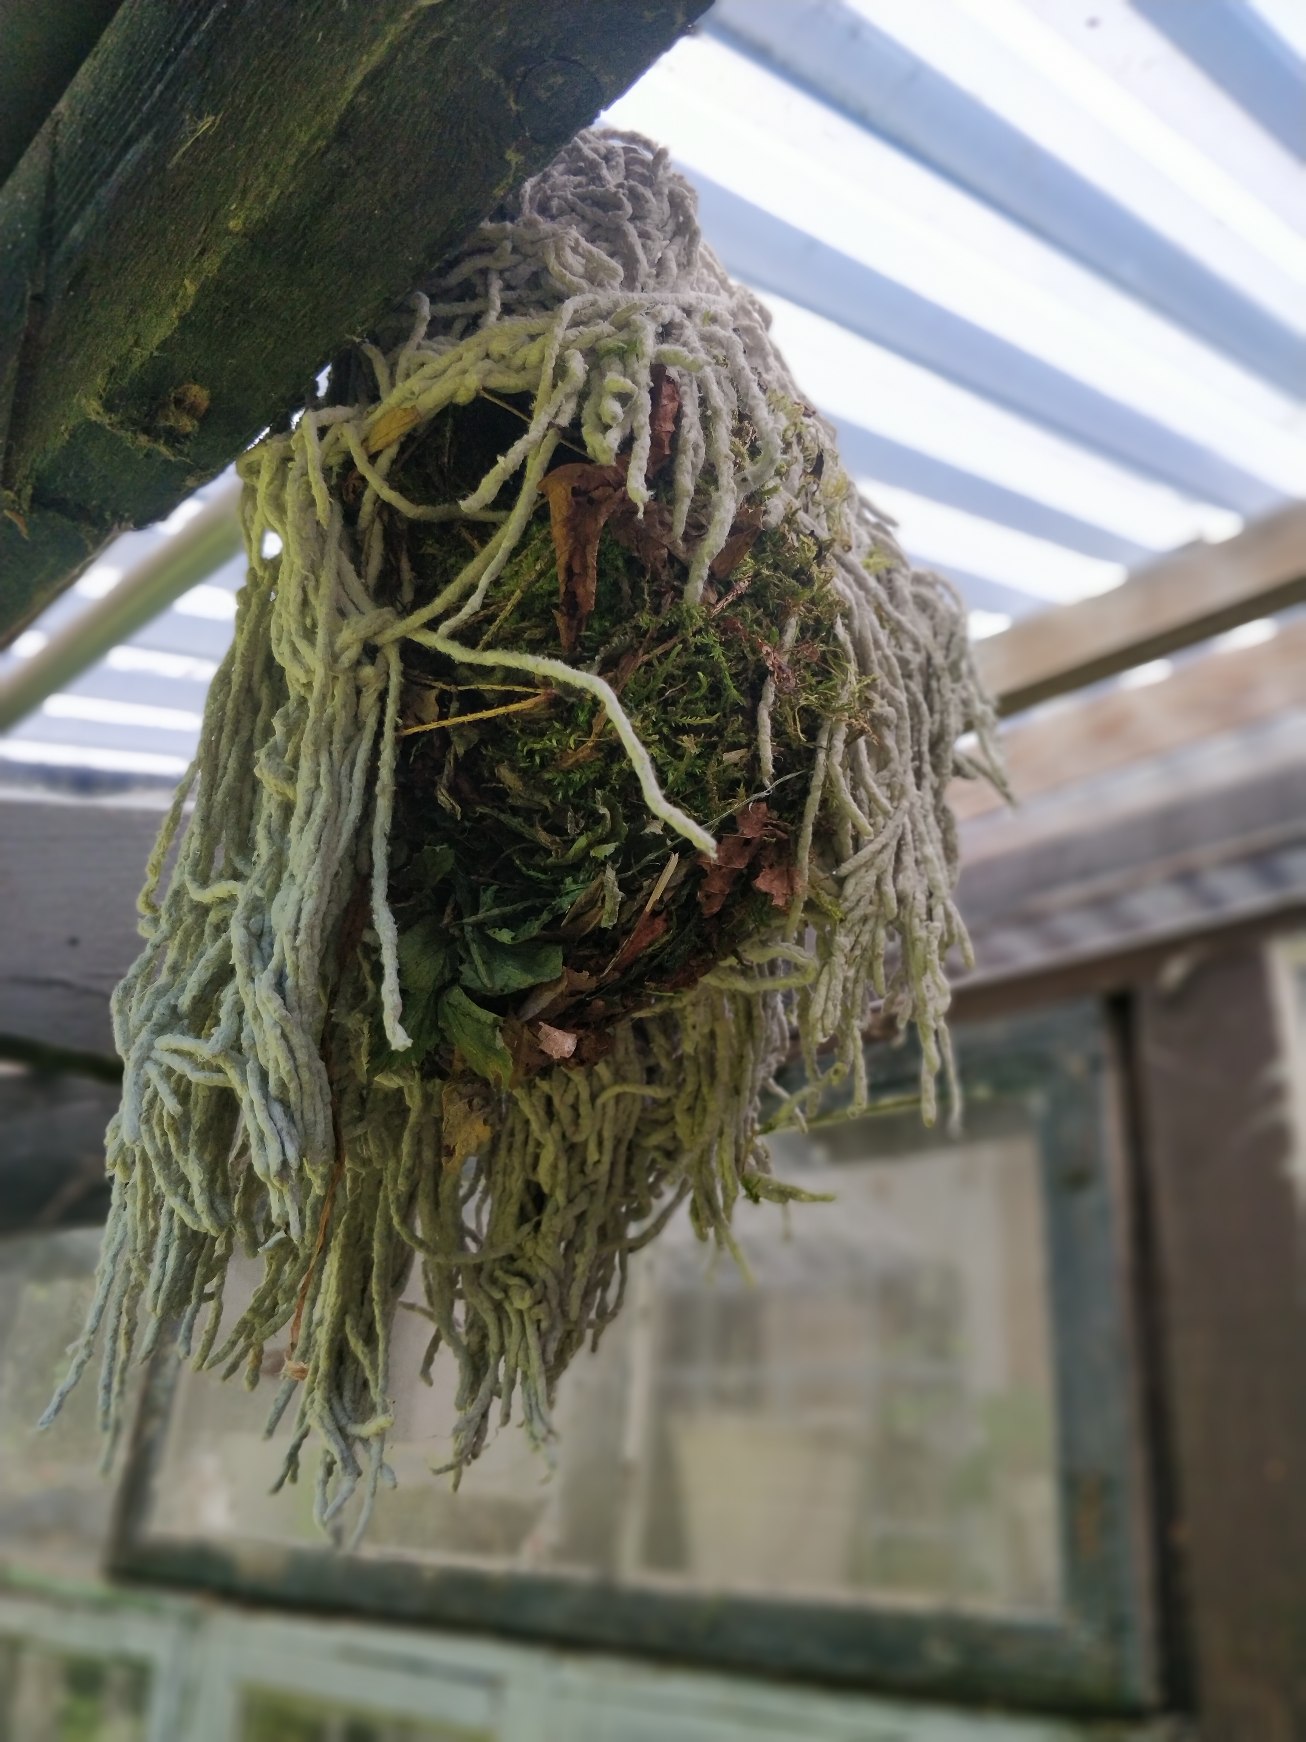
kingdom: Animalia
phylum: Chordata
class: Aves
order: Passeriformes
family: Troglodytidae
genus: Troglodytes
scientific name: Troglodytes troglodytes
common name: Gærdesmutte
